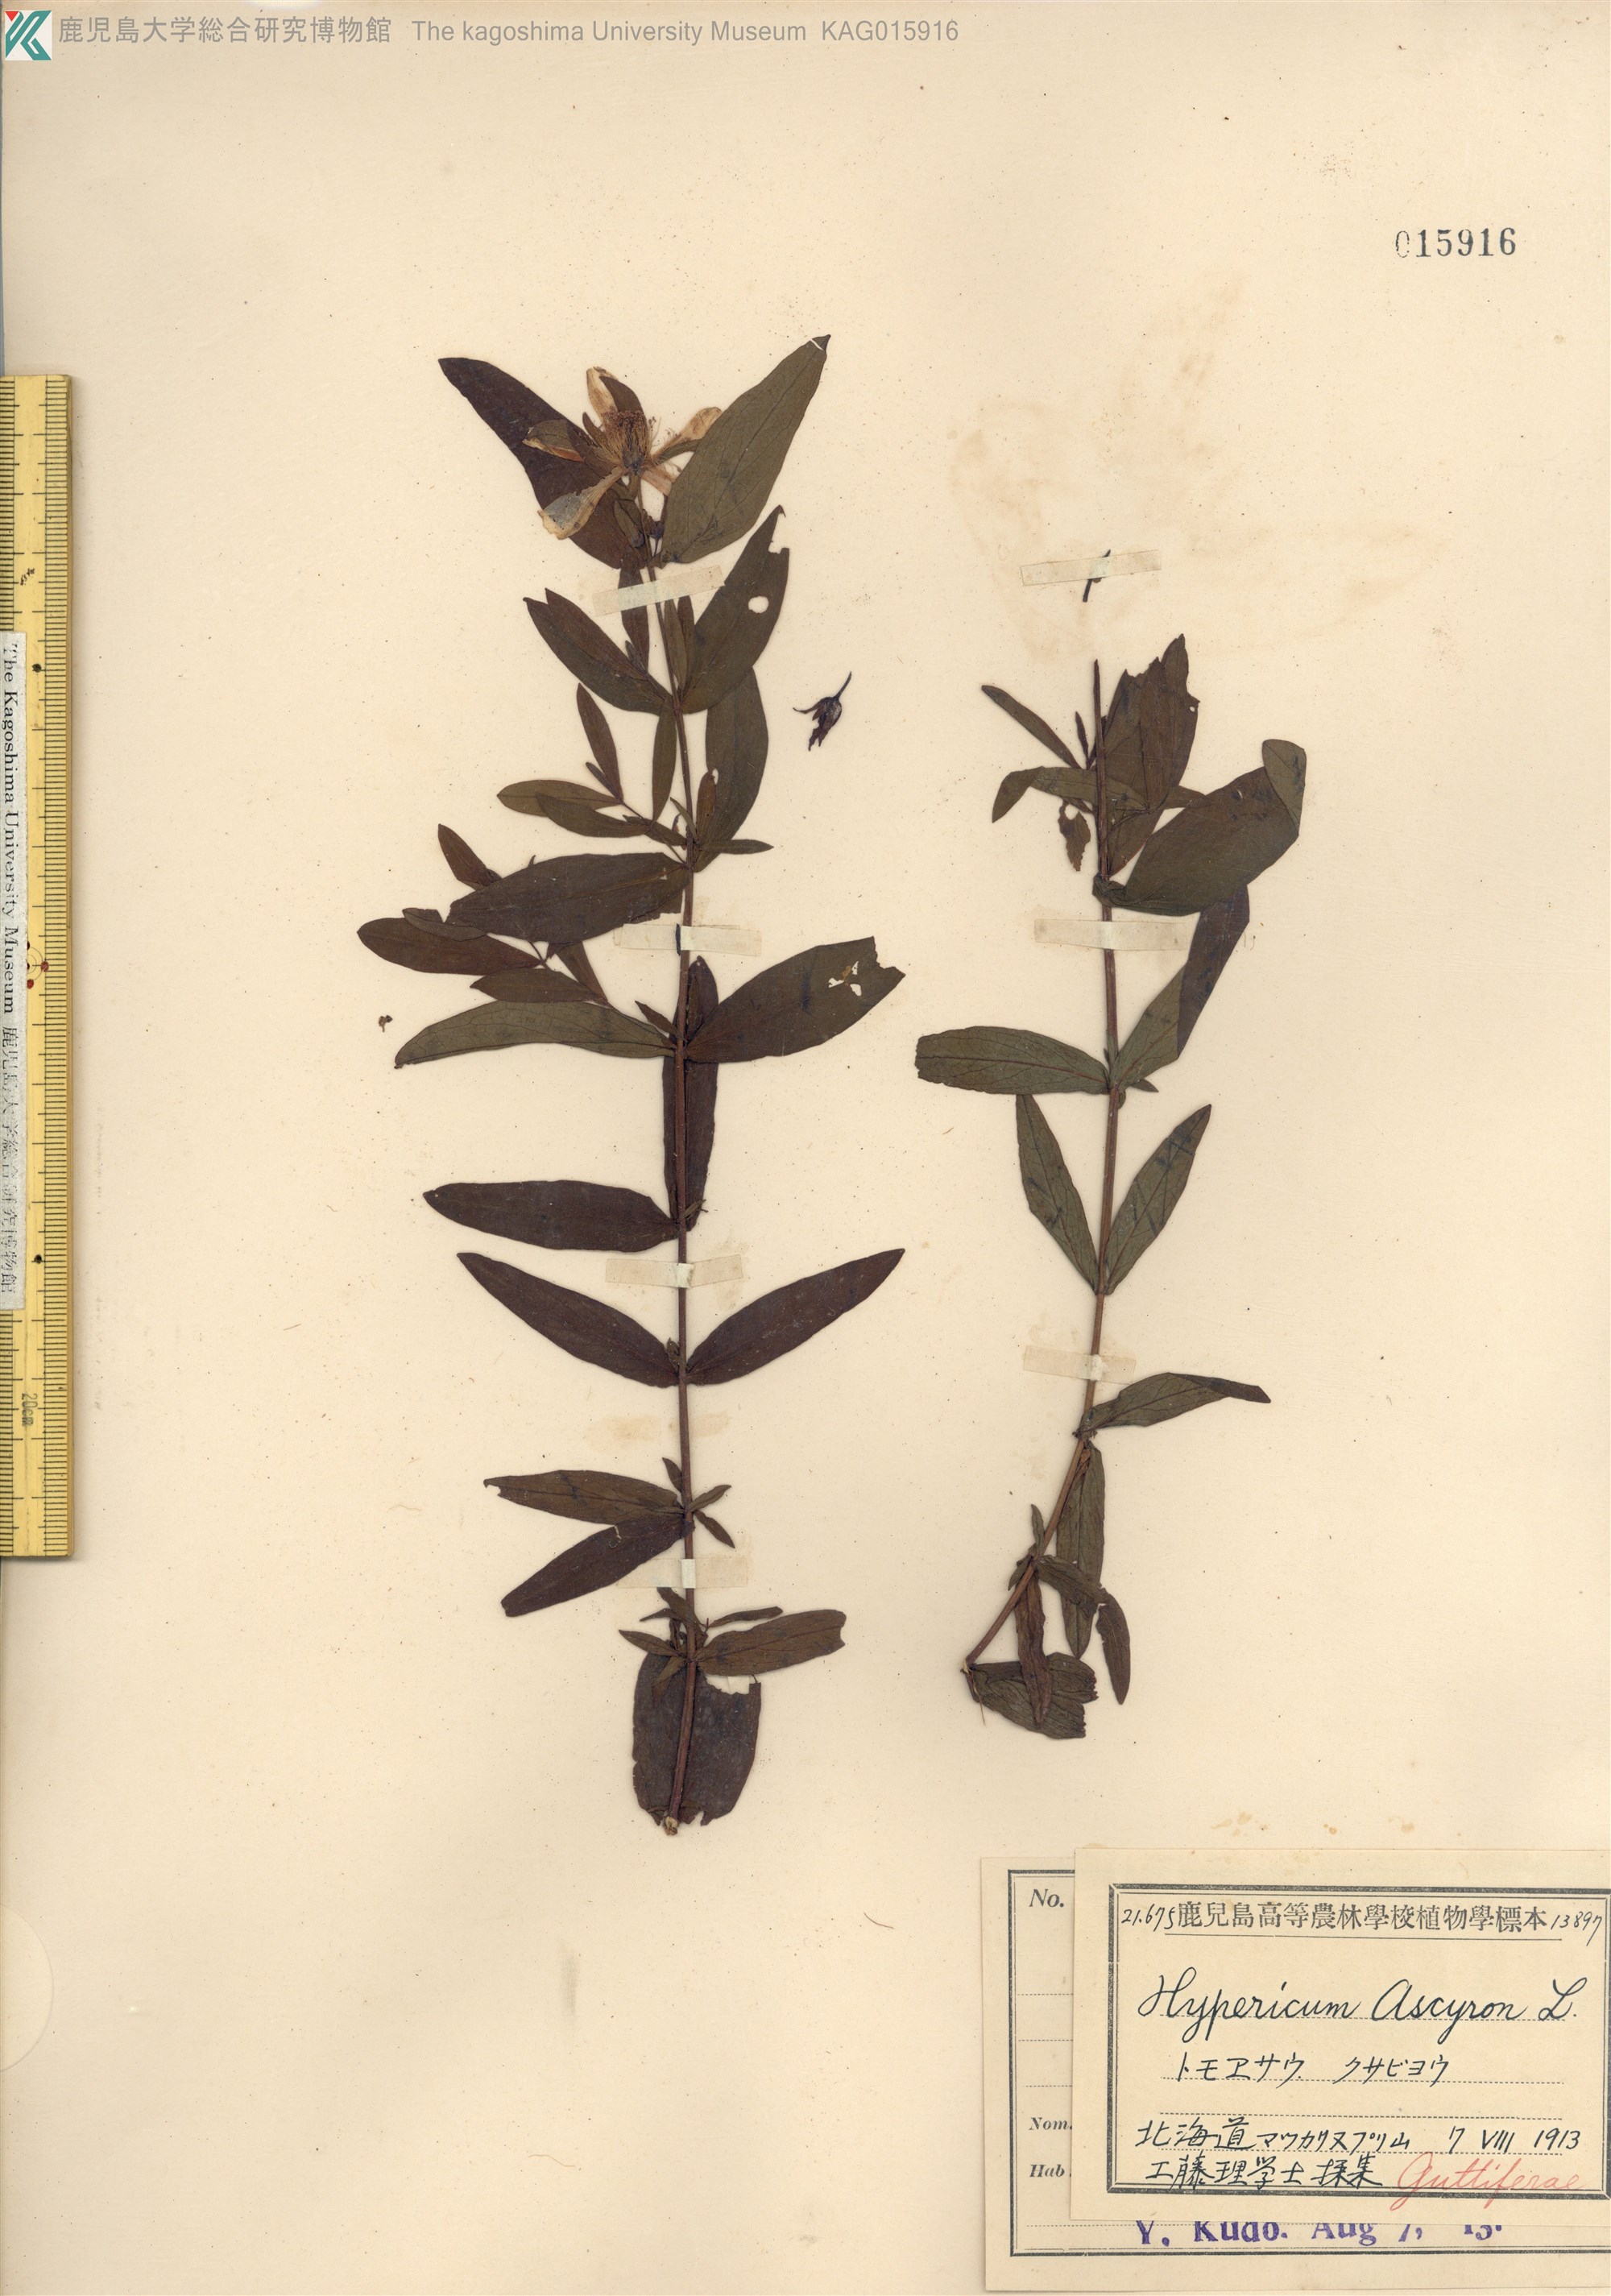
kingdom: Plantae
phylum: Tracheophyta
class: Magnoliopsida
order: Malpighiales
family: Hypericaceae
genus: Hypericum
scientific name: Hypericum ascyron
